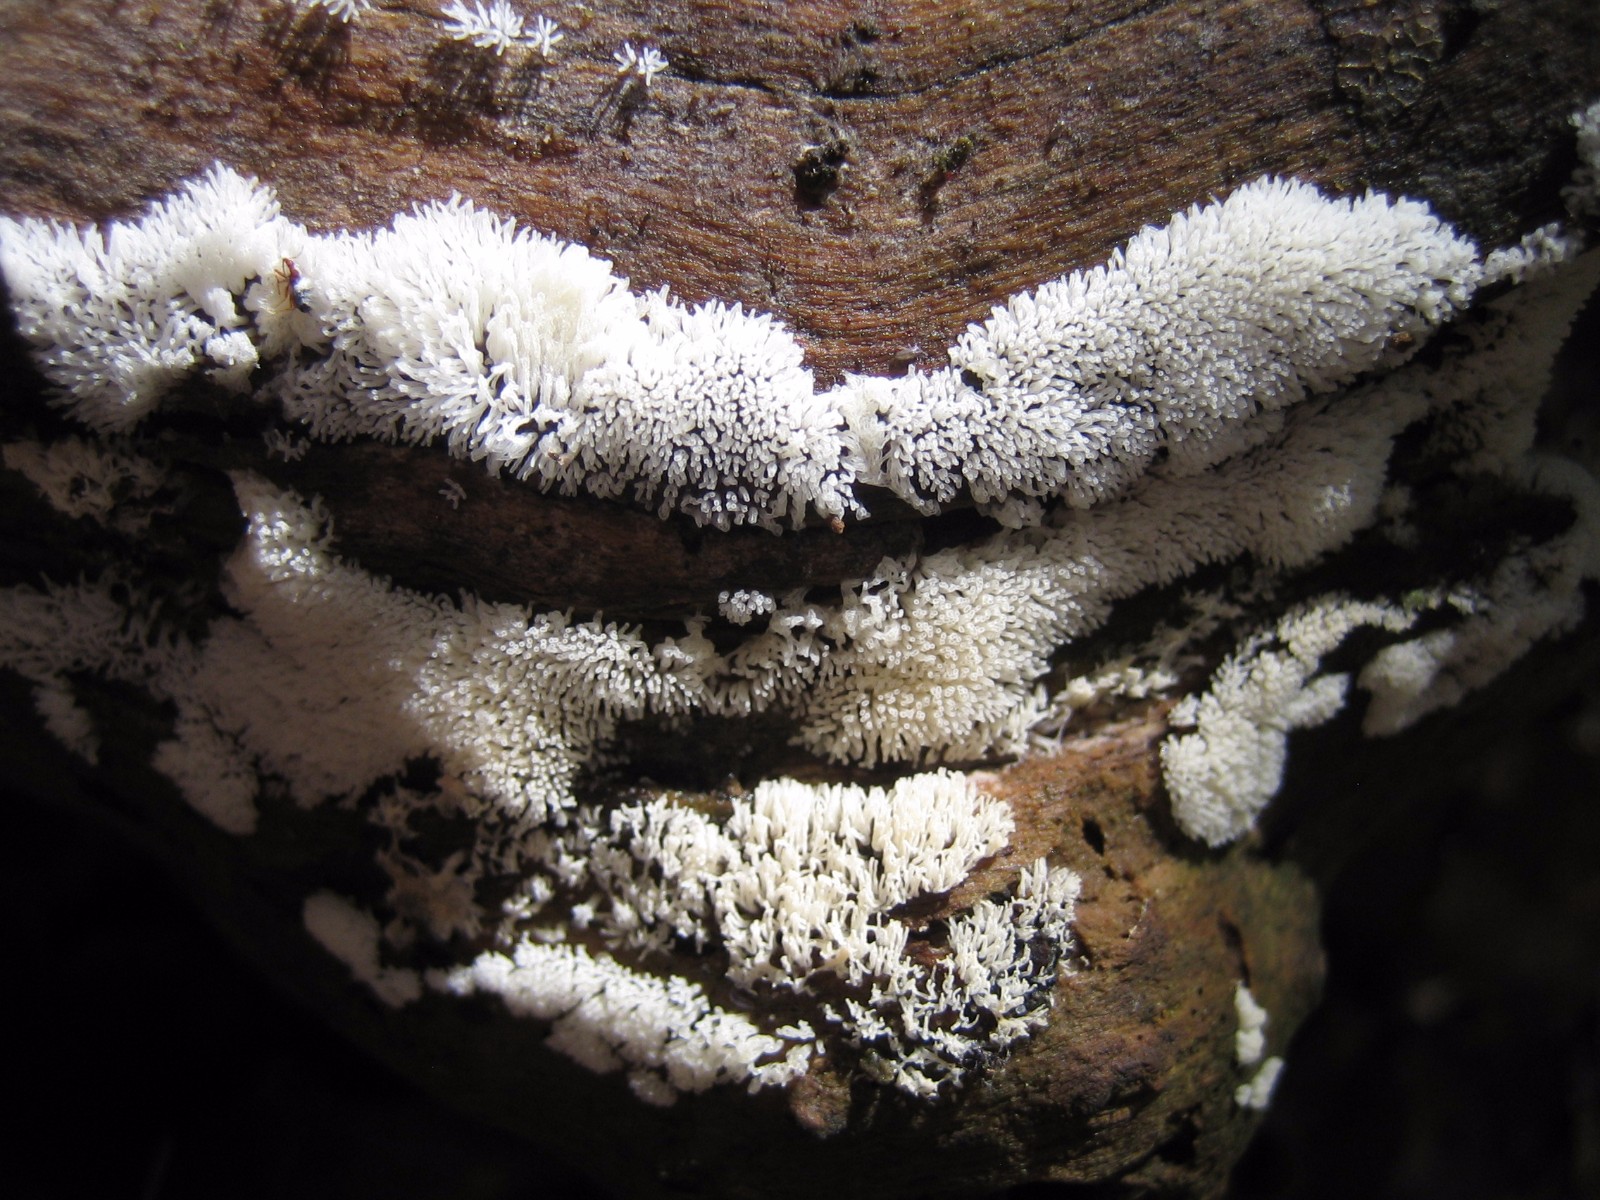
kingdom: Protozoa
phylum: Mycetozoa
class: Protosteliomycetes
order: Ceratiomyxales
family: Ceratiomyxaceae
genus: Ceratiomyxa
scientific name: Ceratiomyxa fruticulosa
